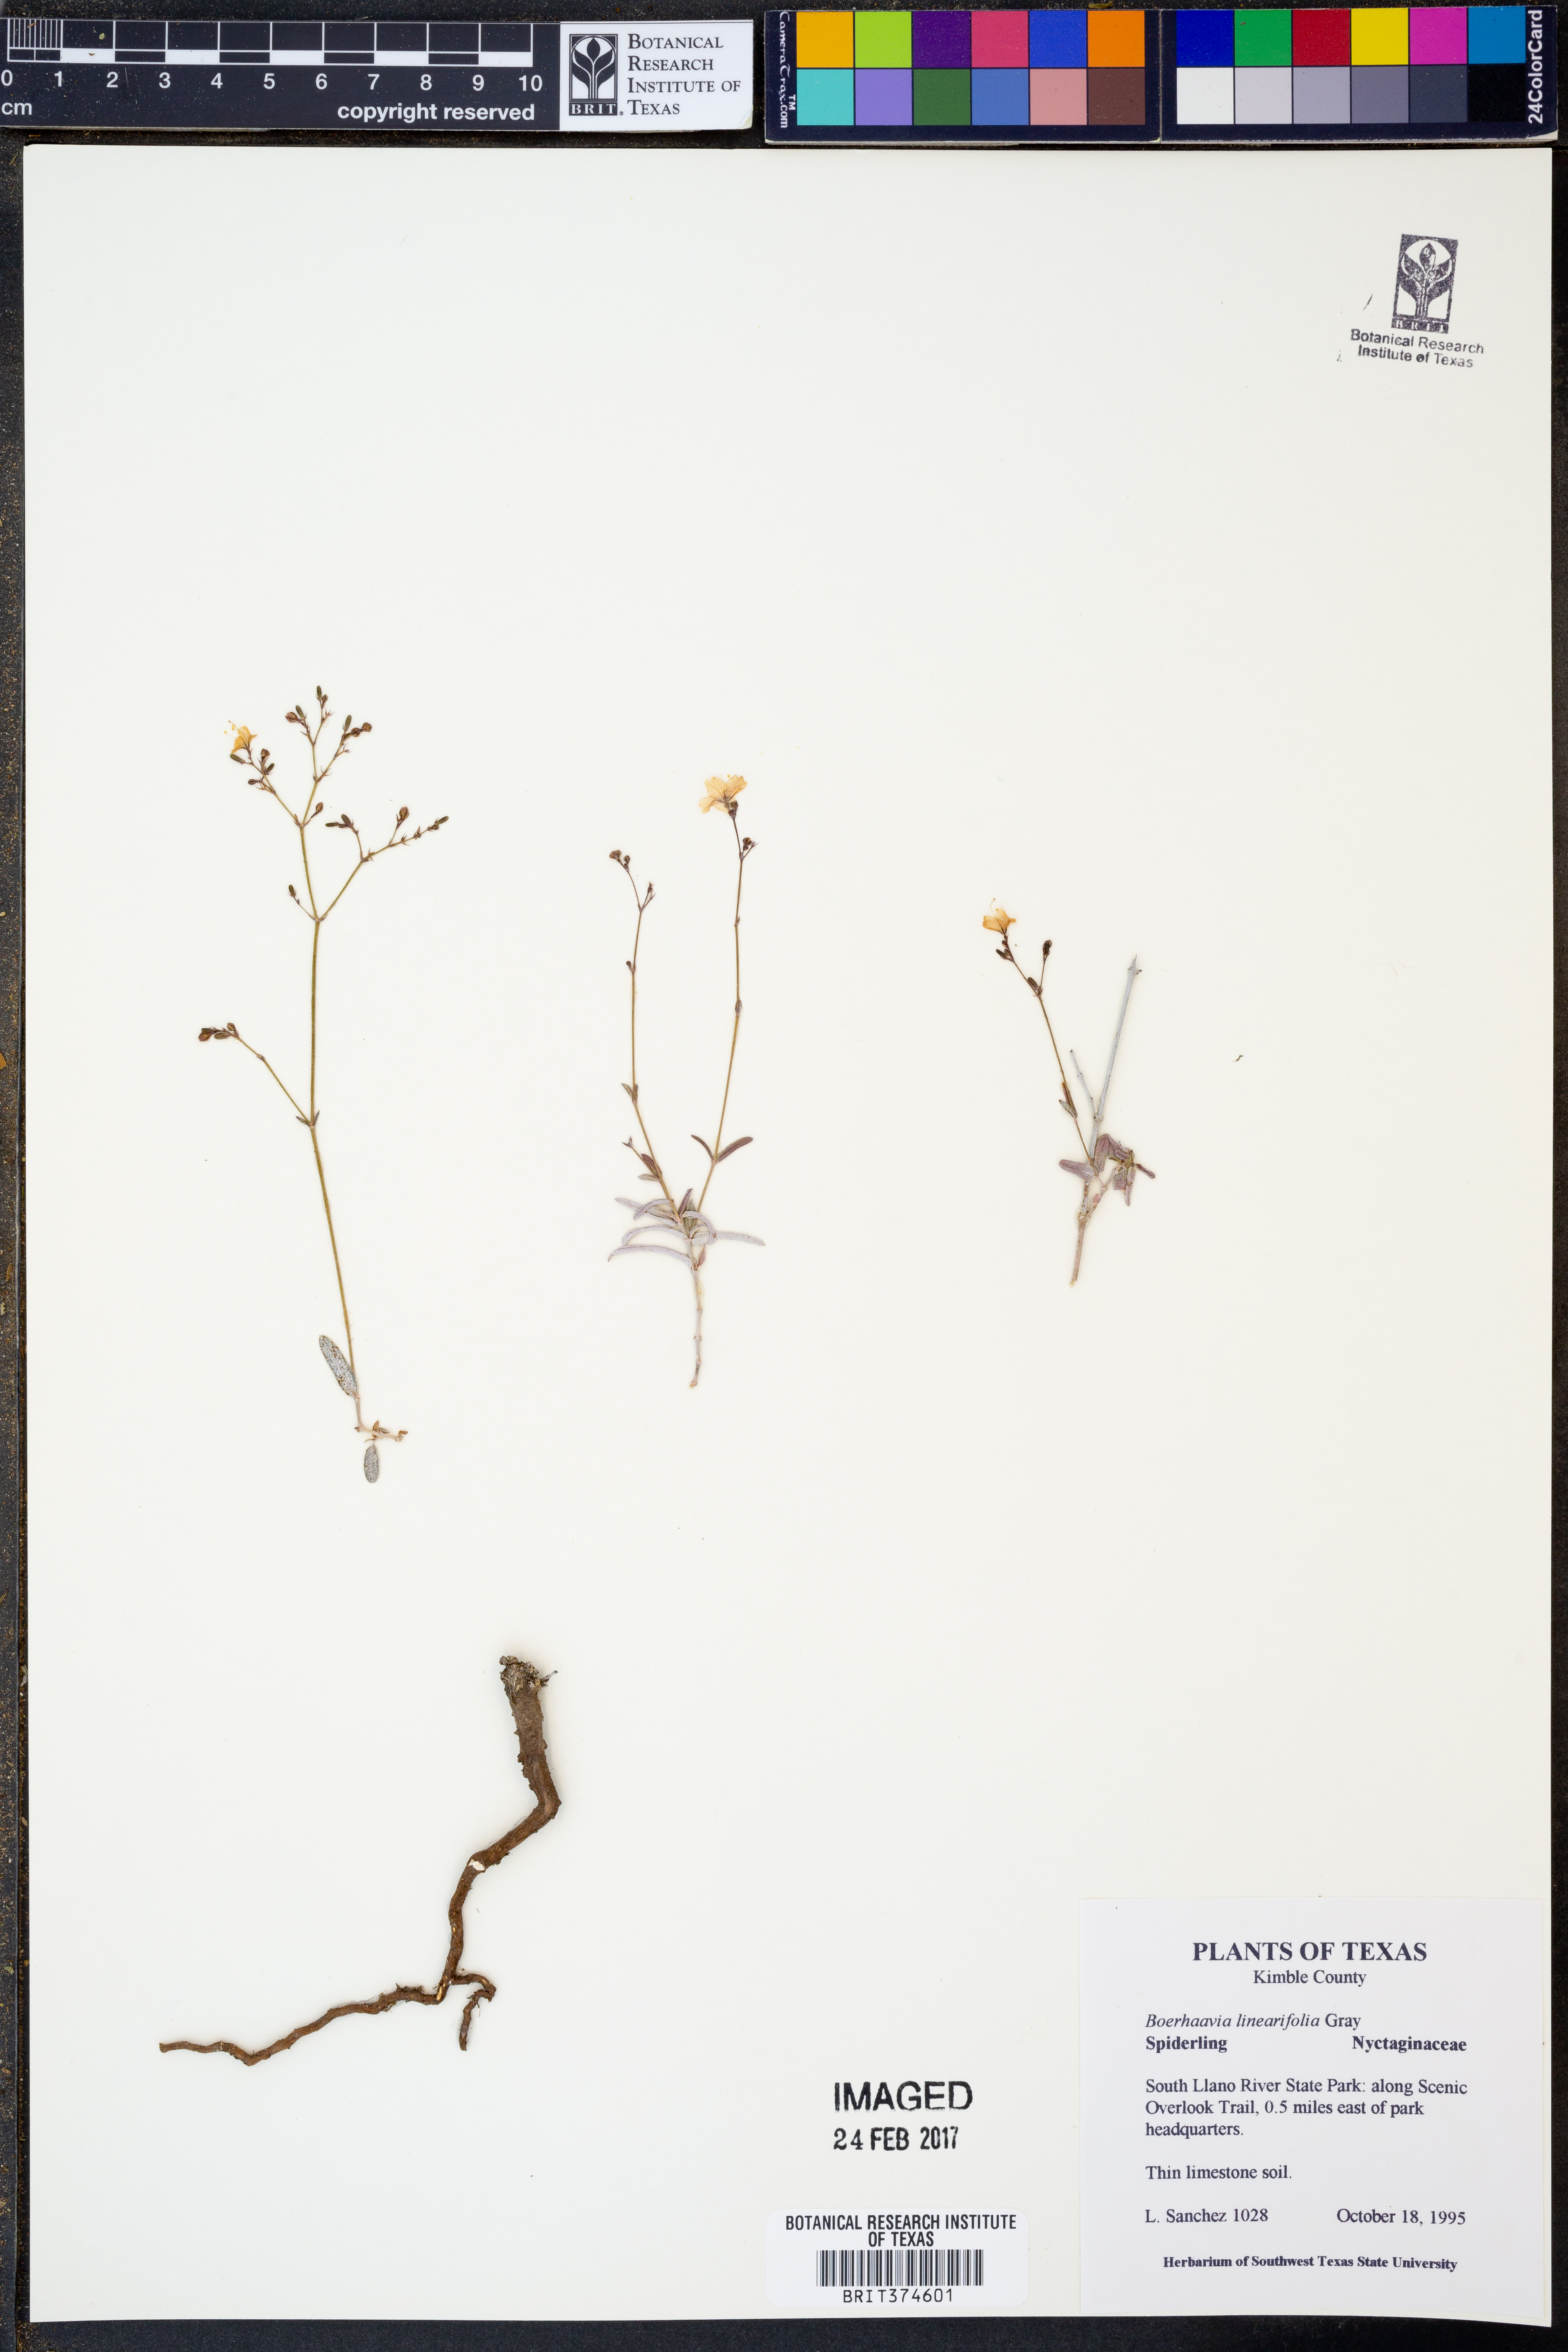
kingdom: Plantae
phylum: Tracheophyta
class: Magnoliopsida
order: Caryophyllales
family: Nyctaginaceae
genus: Boerhavia
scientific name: Boerhavia linearifolia
